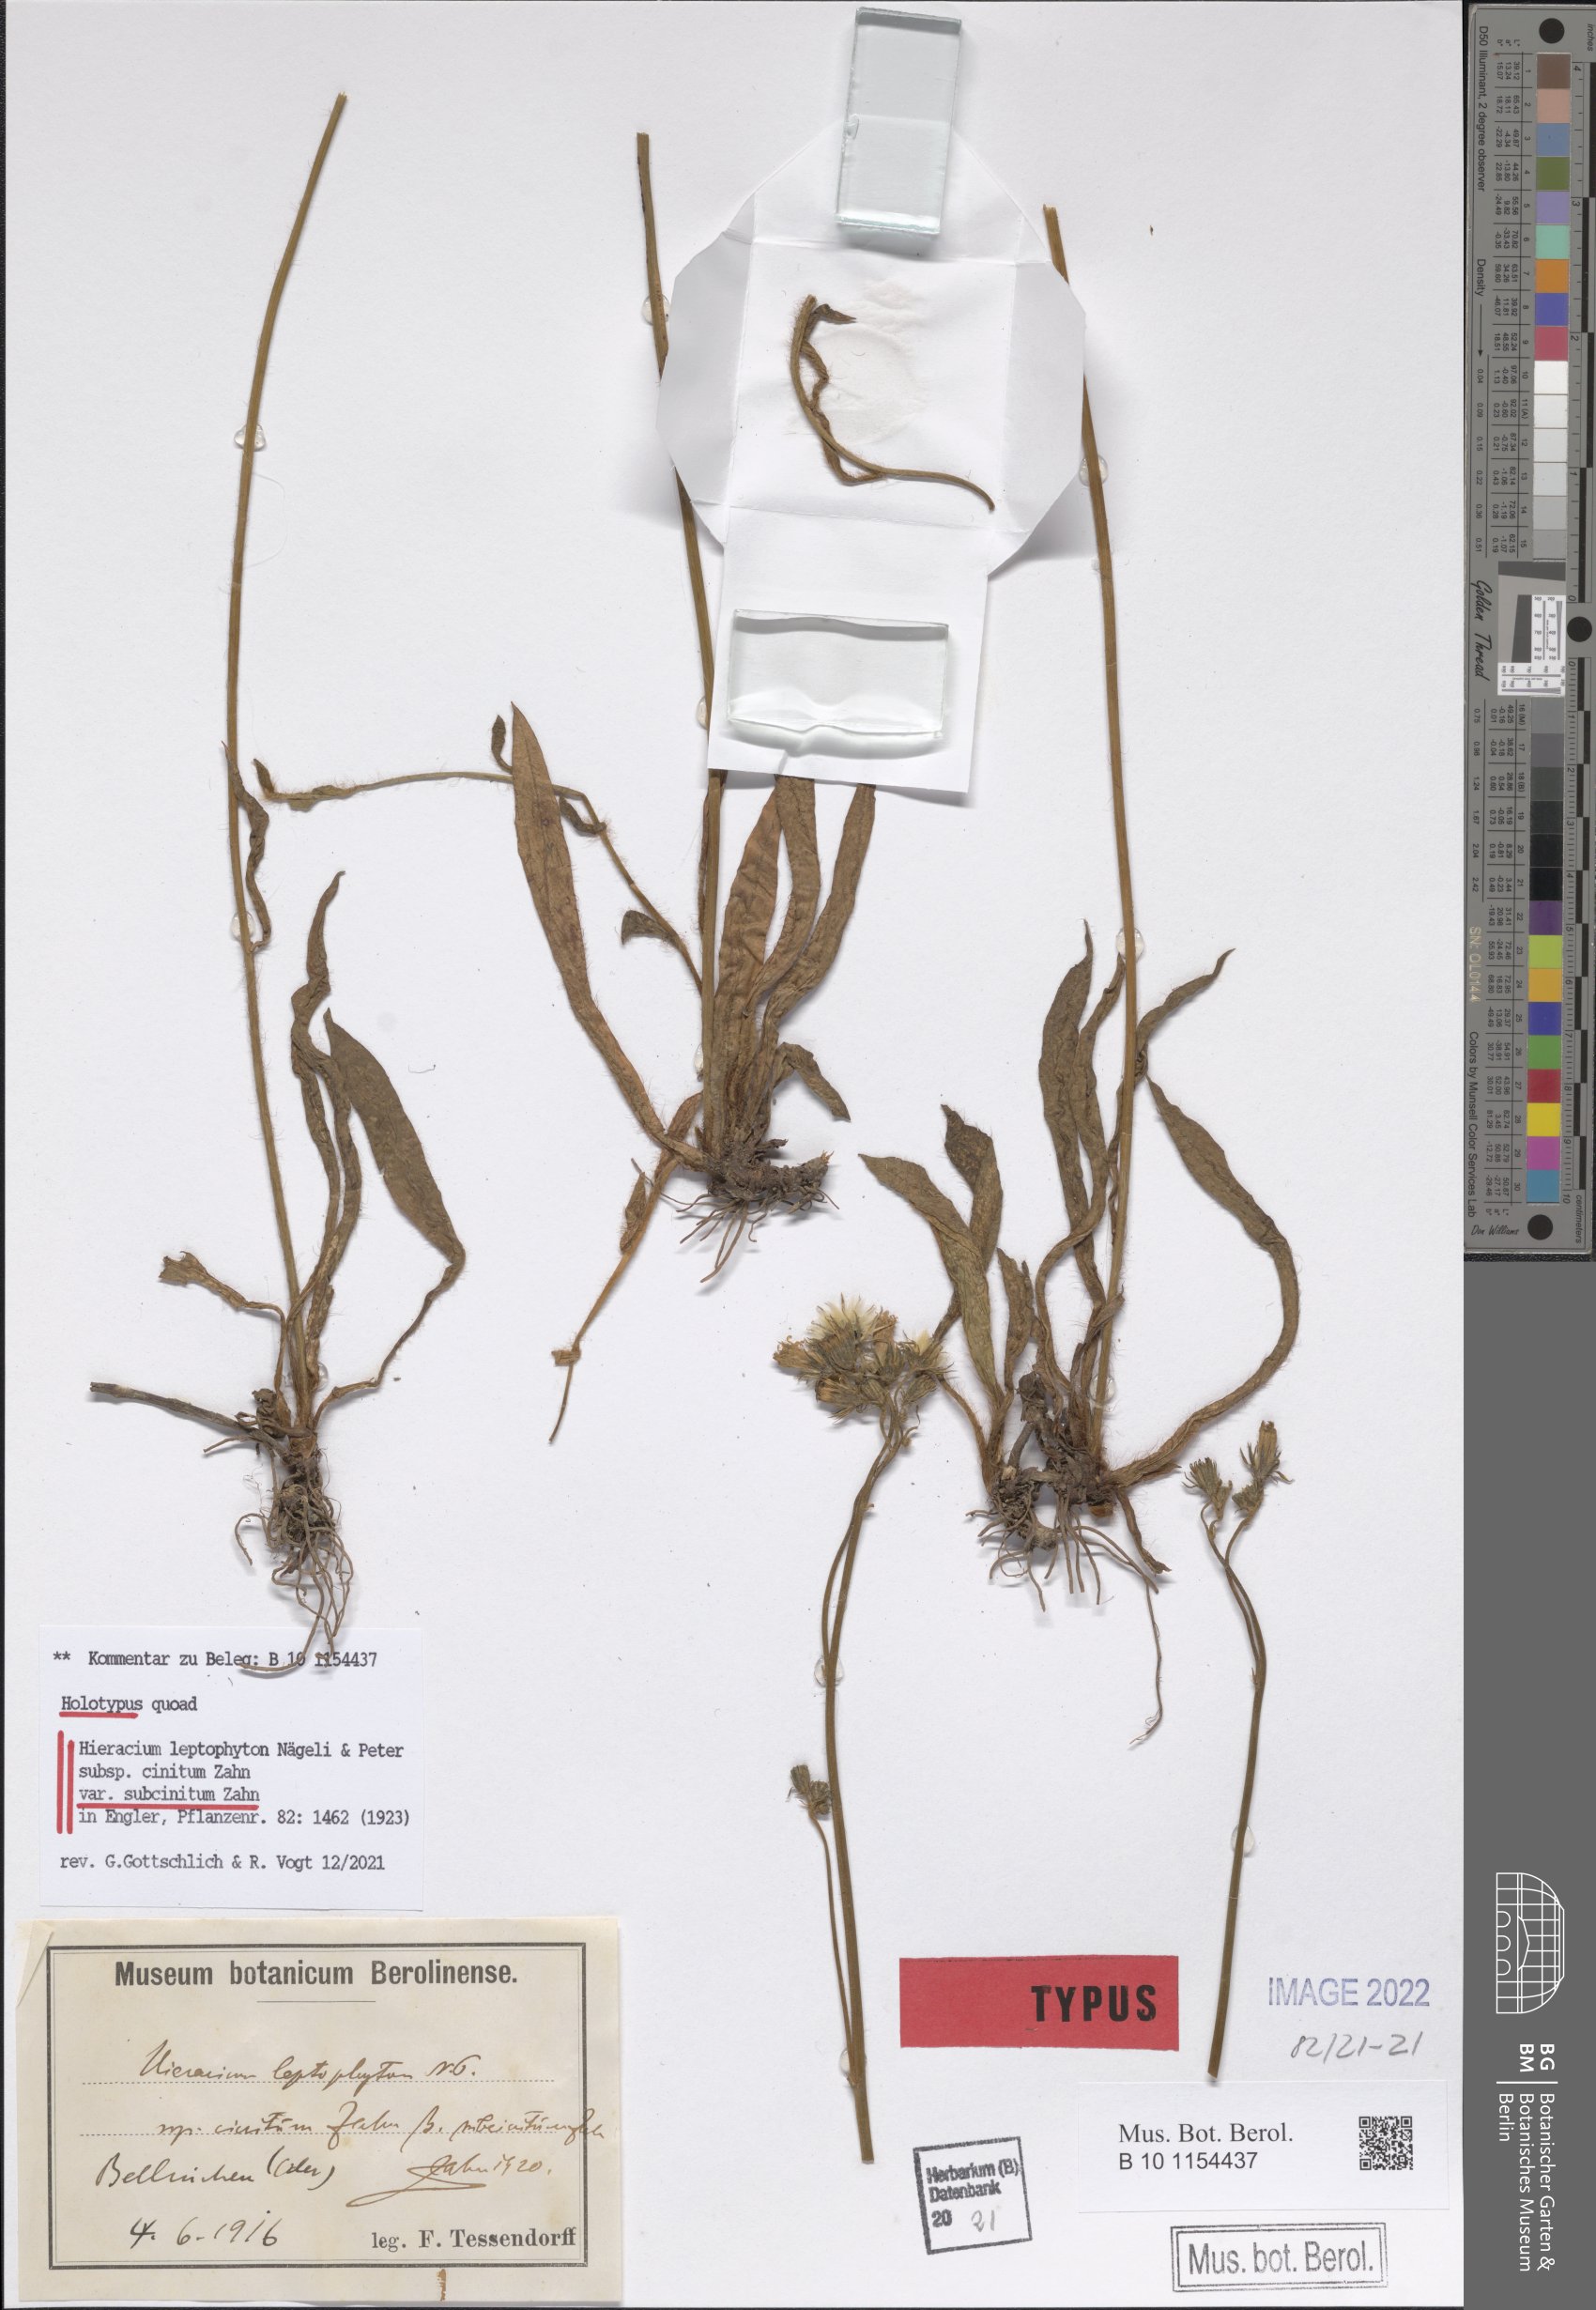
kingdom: Plantae
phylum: Tracheophyta
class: Magnoliopsida
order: Asterales
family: Asteraceae
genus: Pilosella
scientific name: Pilosella leptophyton
